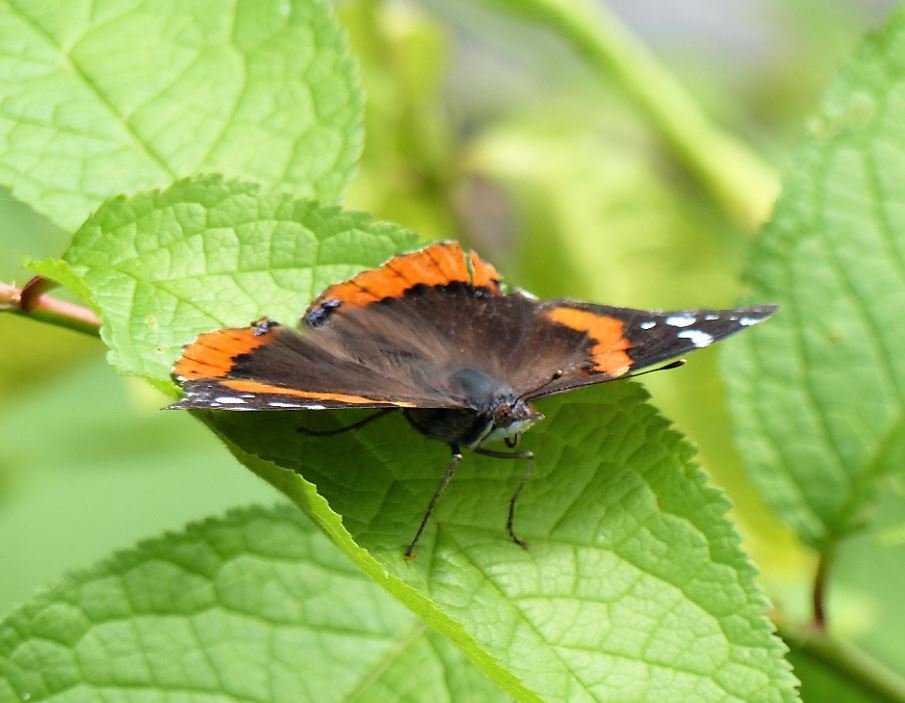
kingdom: Animalia
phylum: Arthropoda
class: Insecta
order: Lepidoptera
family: Nymphalidae
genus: Vanessa
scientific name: Vanessa atalanta
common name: Red Admiral
